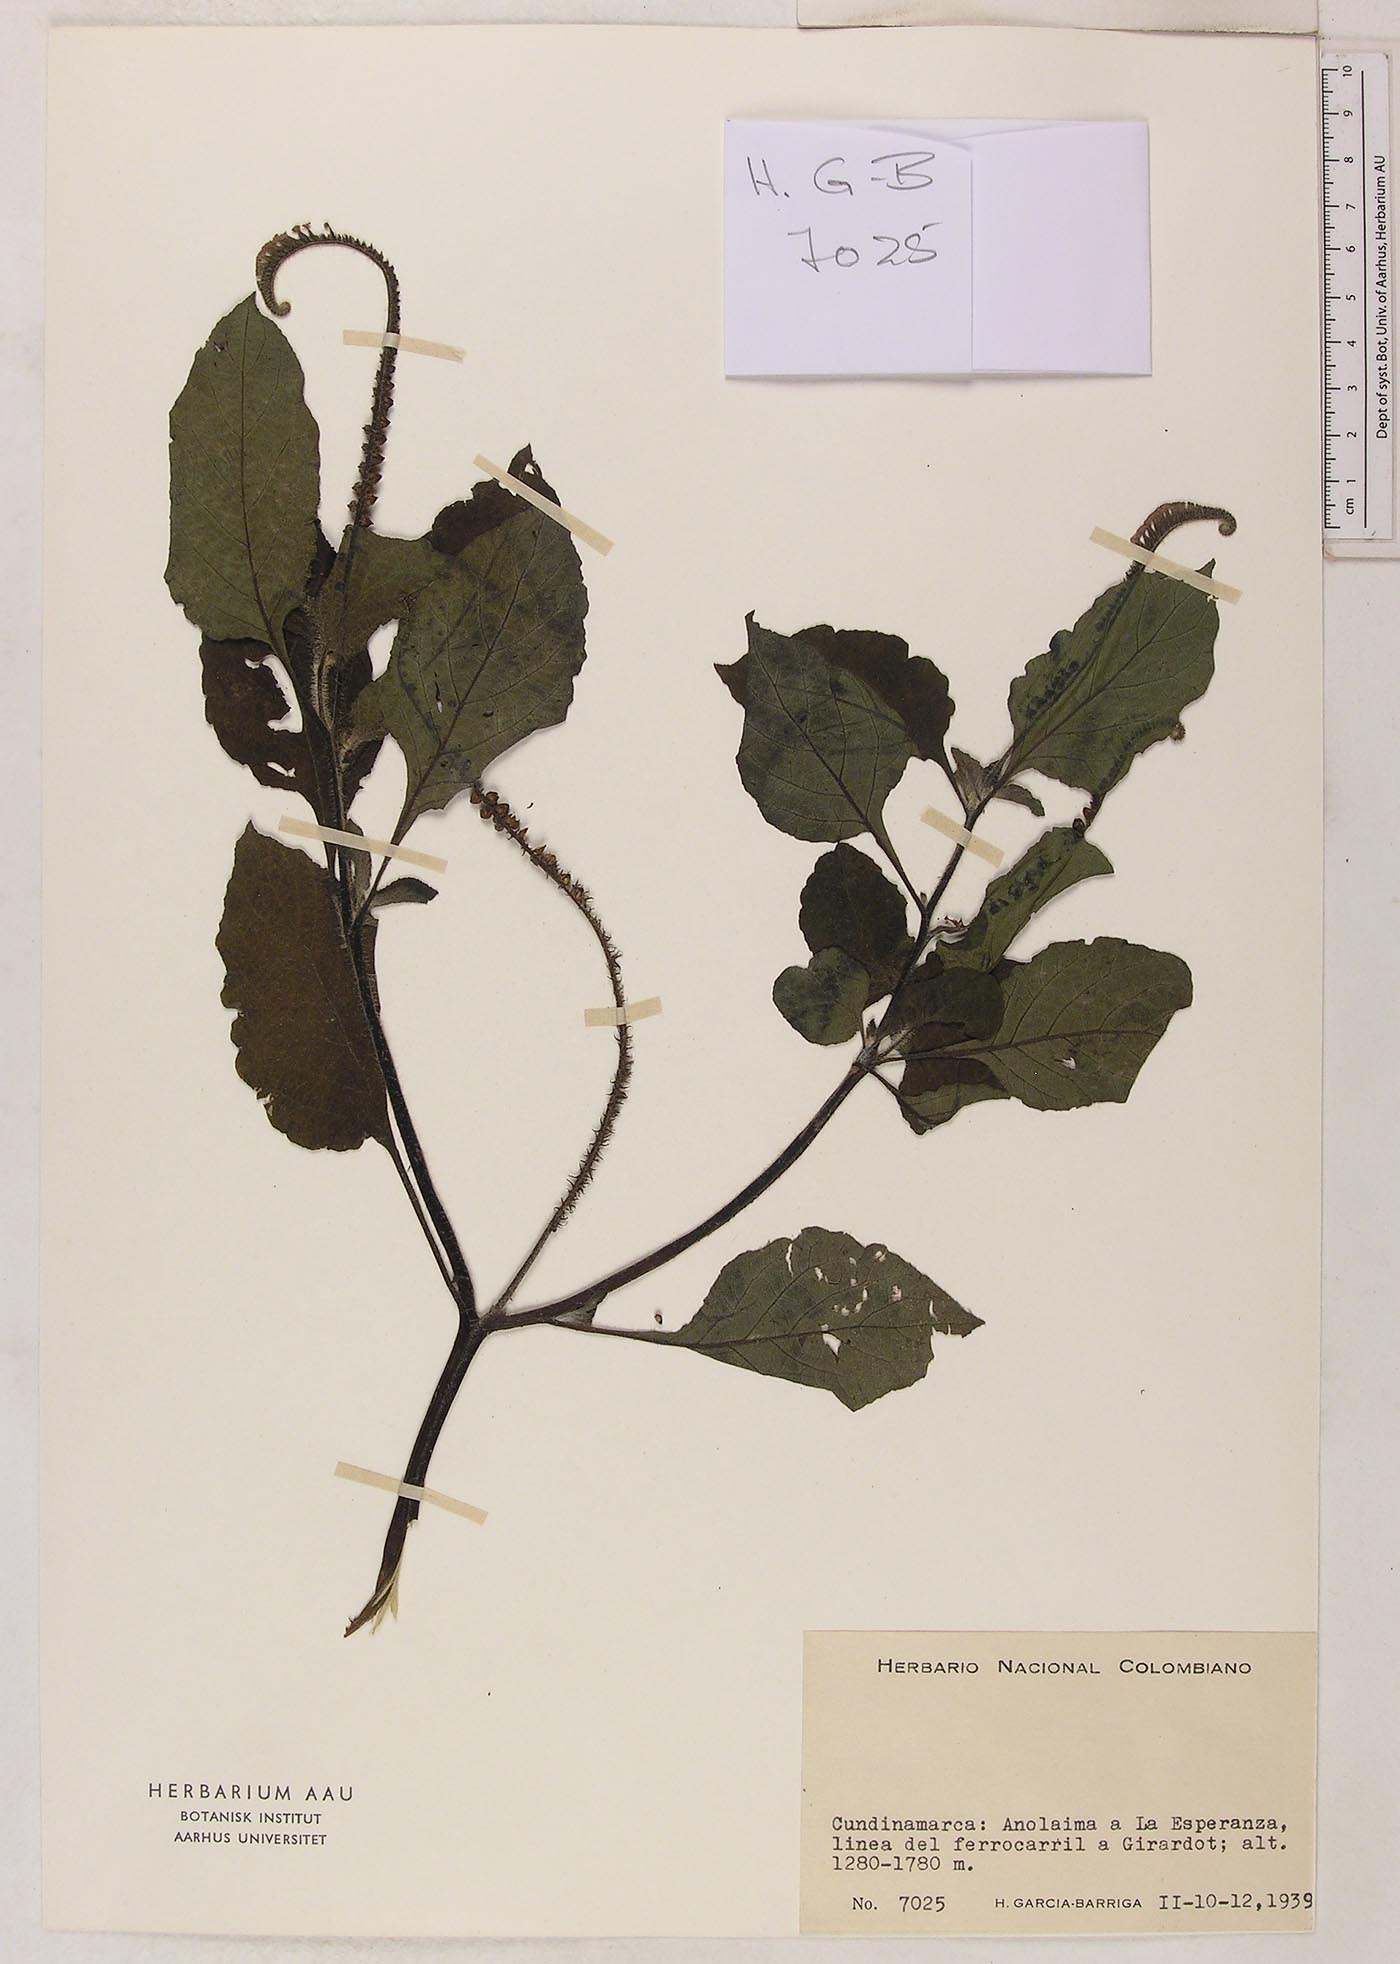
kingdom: Plantae
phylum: Tracheophyta
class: Magnoliopsida
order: Boraginales
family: Heliotropiaceae
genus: Heliotropium
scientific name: Heliotropium indicum
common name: Indian heliotrope
